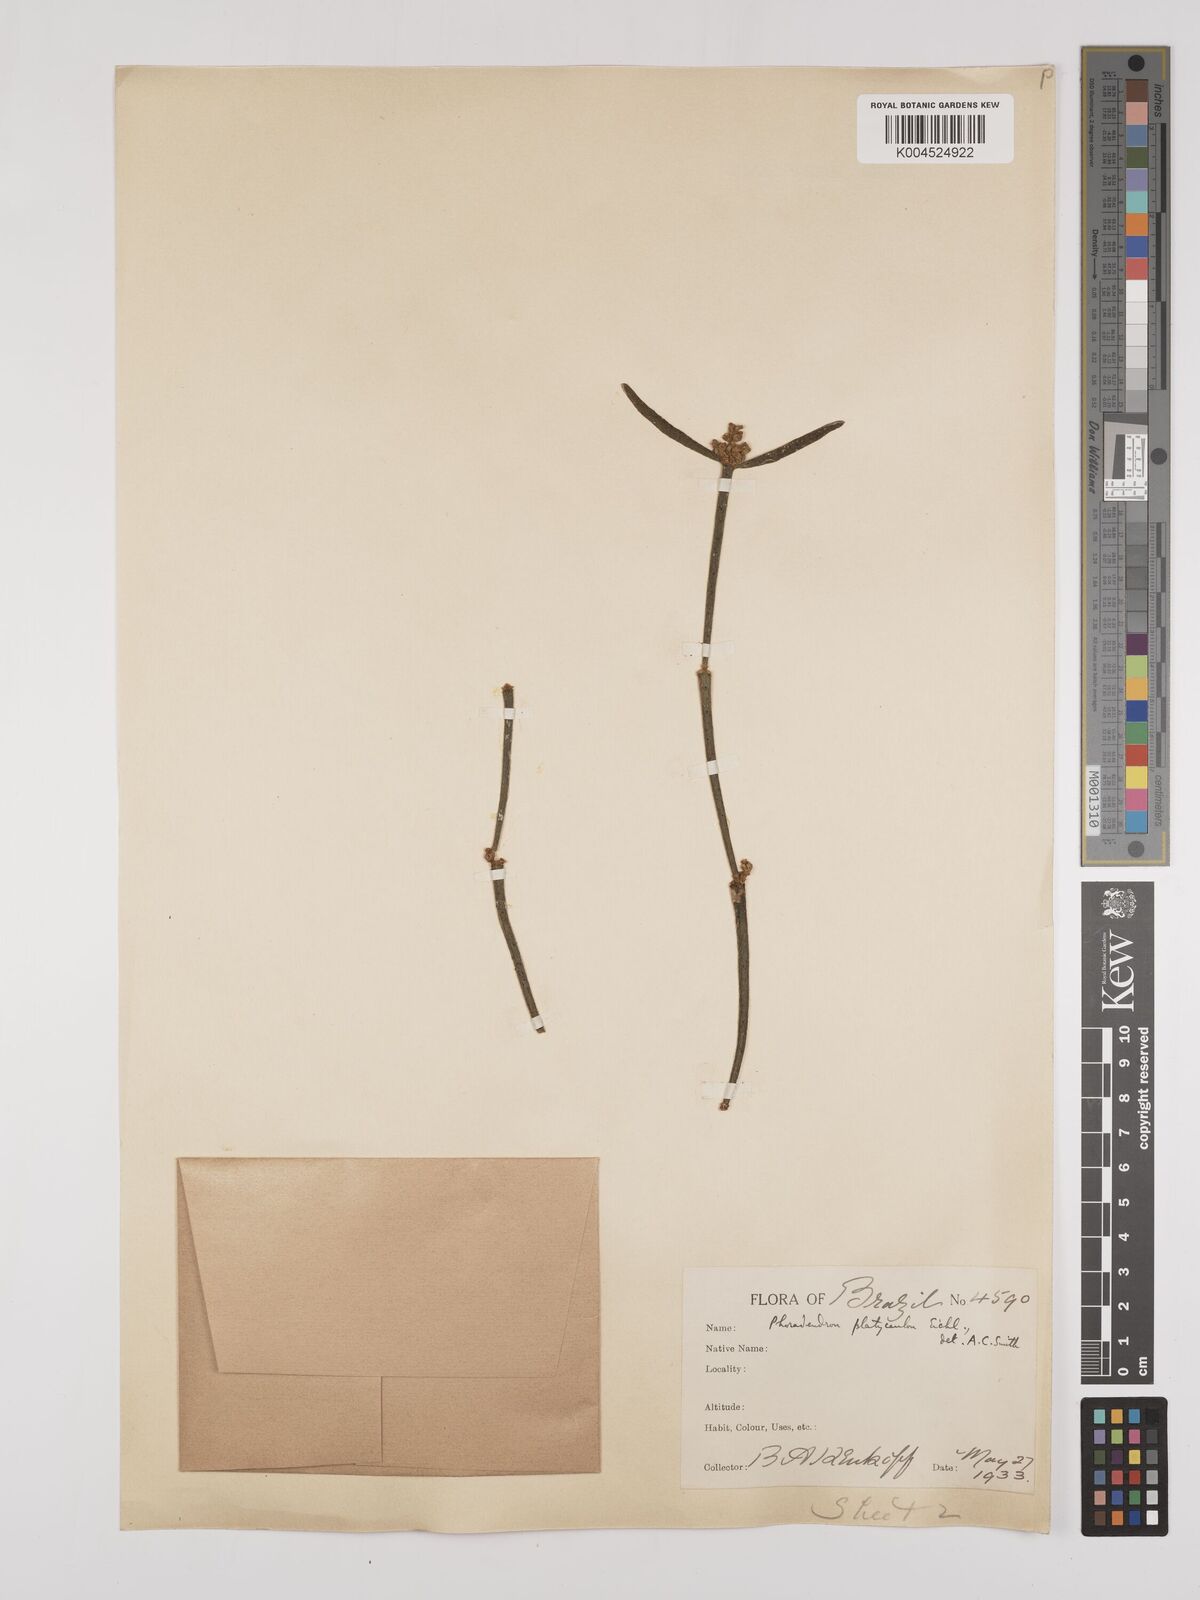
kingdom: Plantae
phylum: Tracheophyta
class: Magnoliopsida
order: Santalales
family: Viscaceae
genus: Phoradendron
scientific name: Phoradendron planiphyllum
